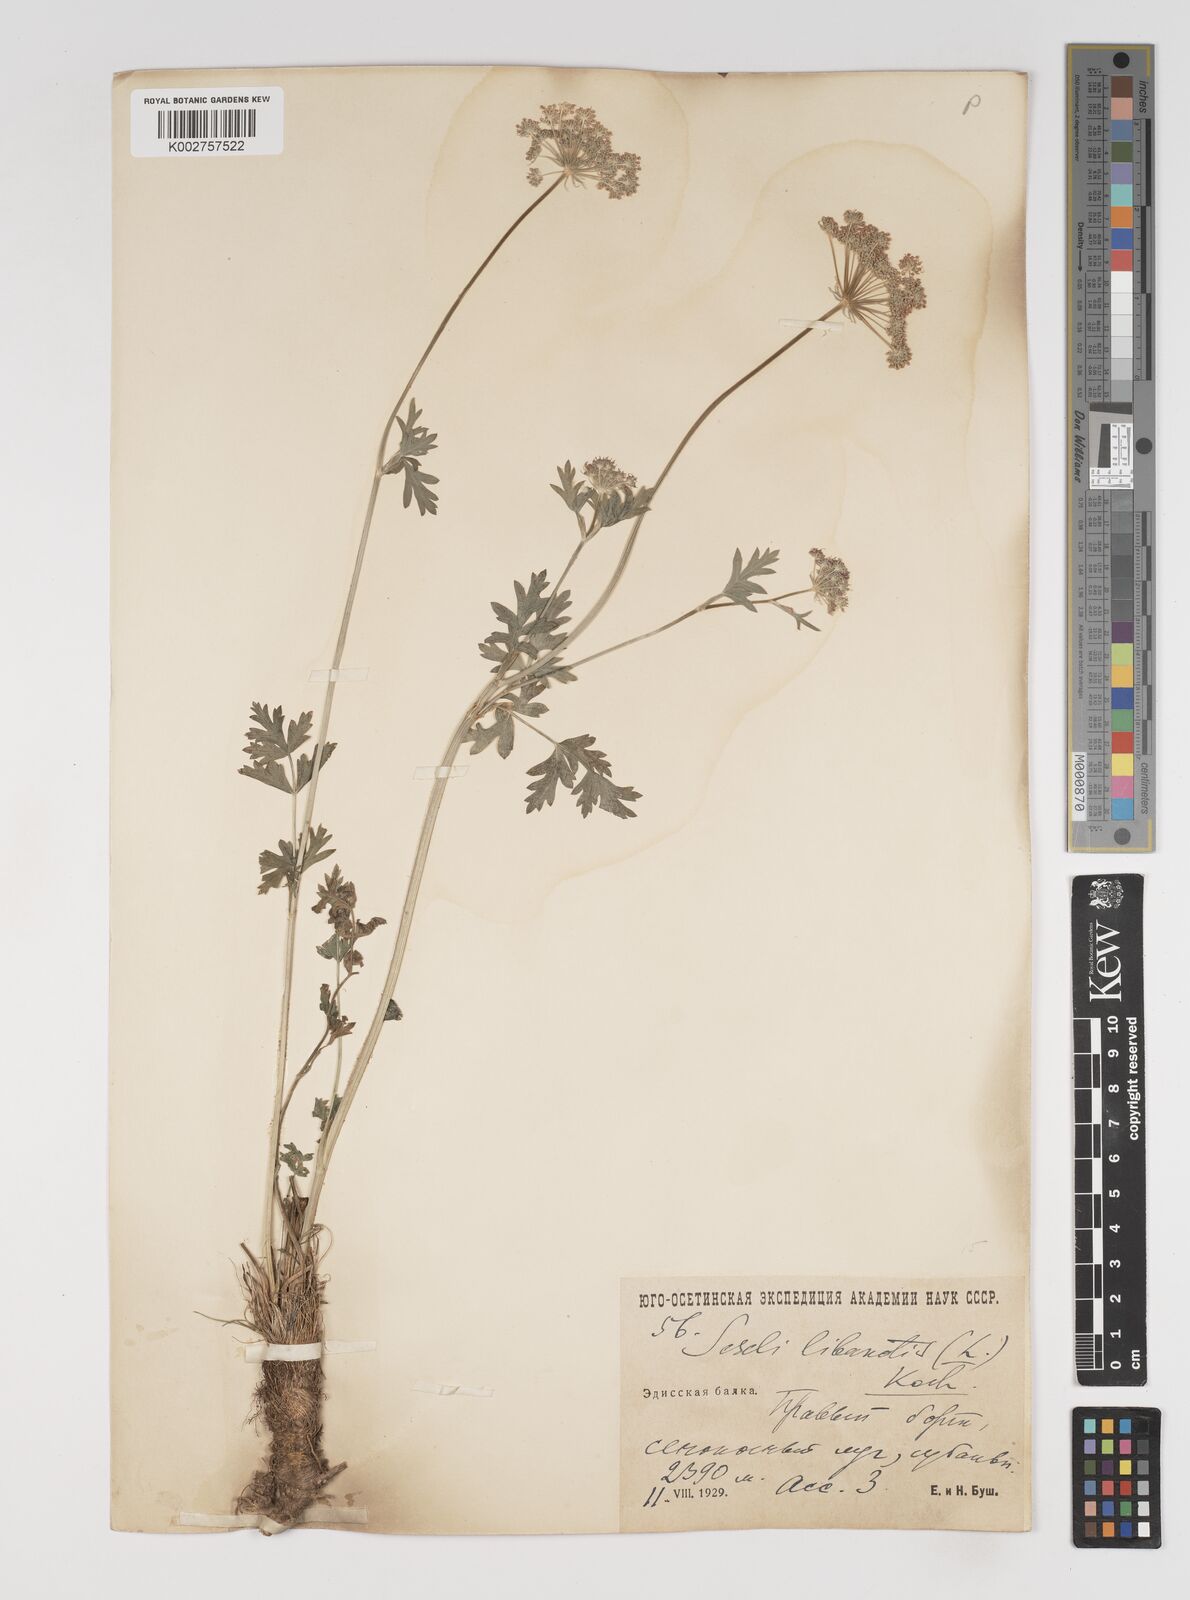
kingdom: Plantae
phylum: Tracheophyta
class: Magnoliopsida
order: Apiales
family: Apiaceae
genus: Seseli
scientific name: Seseli
